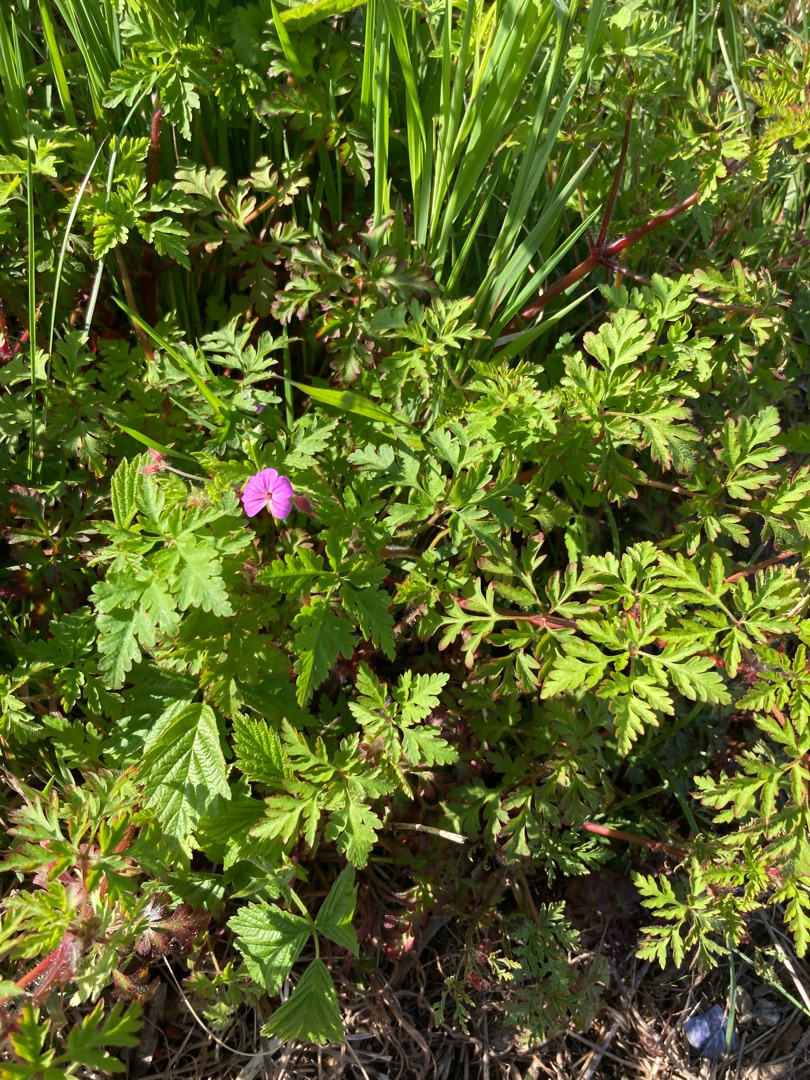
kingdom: Plantae
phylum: Tracheophyta
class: Magnoliopsida
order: Geraniales
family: Geraniaceae
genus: Geranium
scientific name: Geranium robertianum
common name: Stinkende storkenæb
